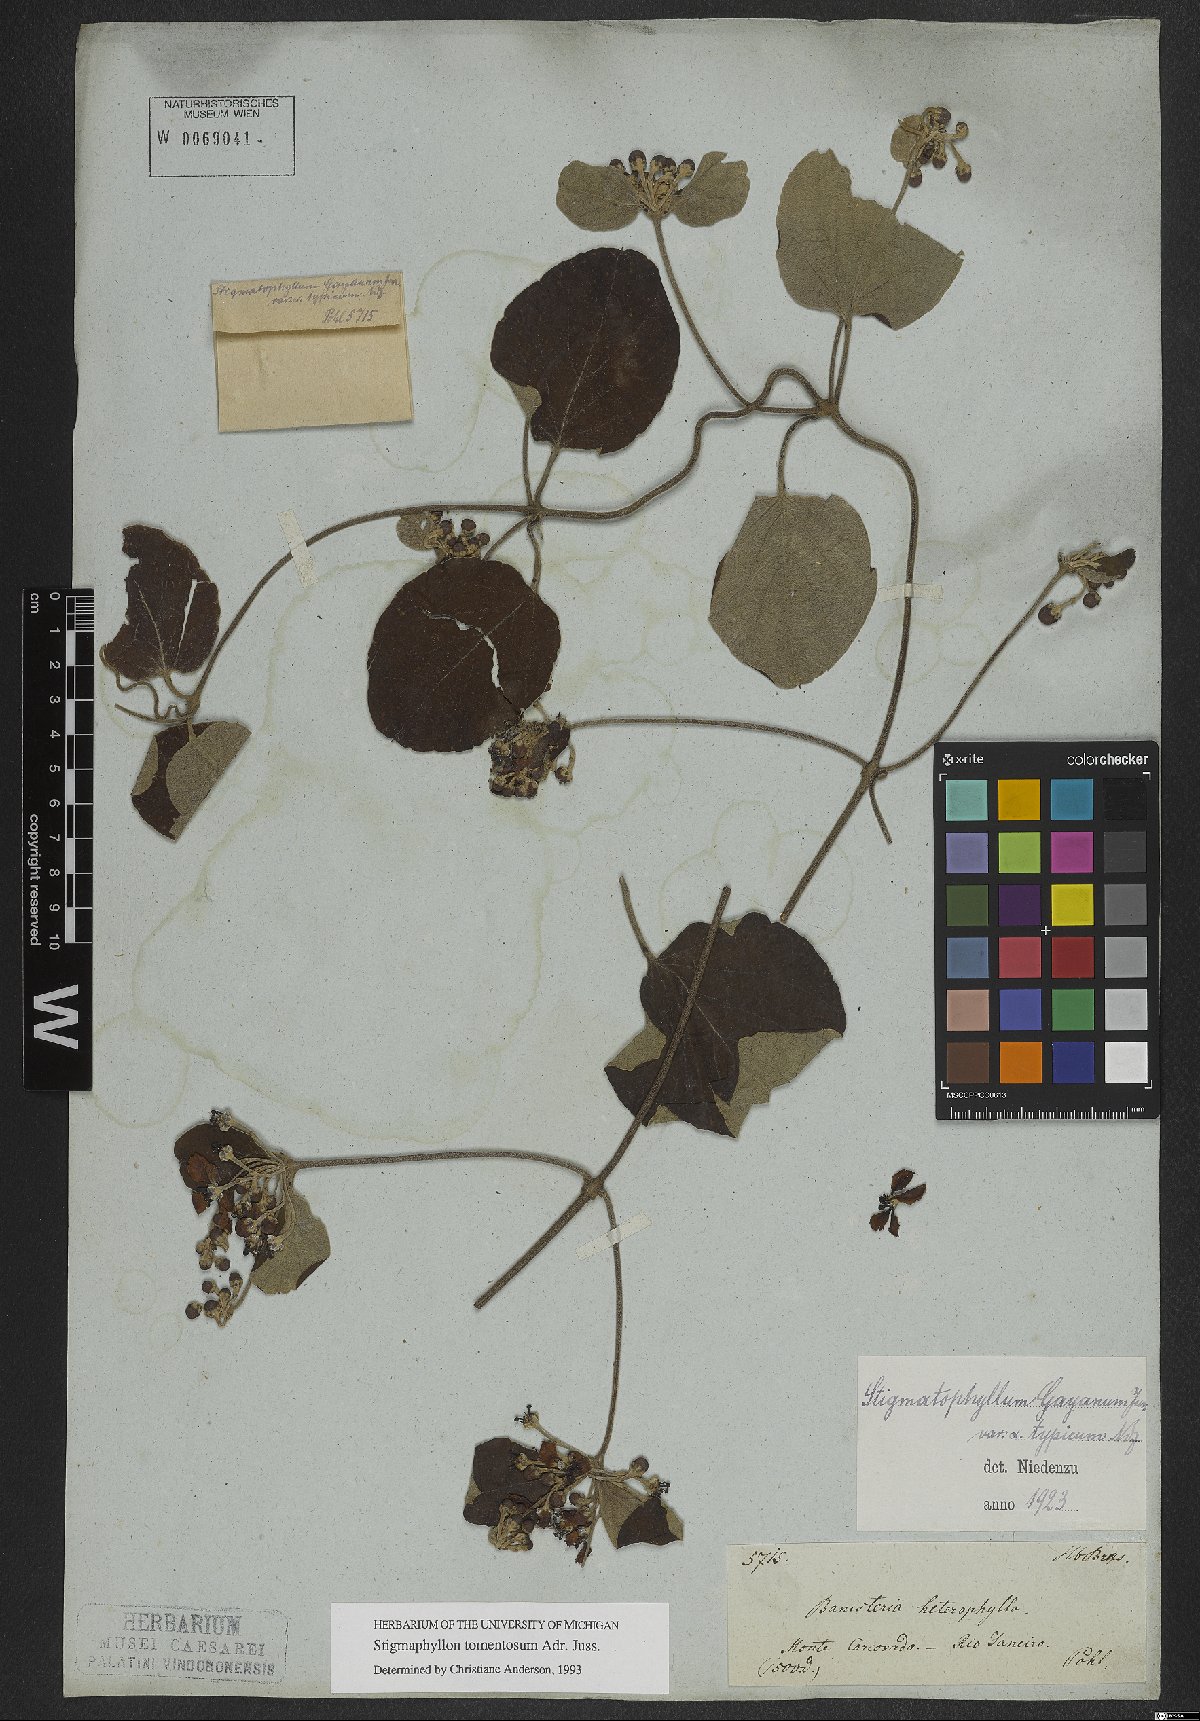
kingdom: Plantae
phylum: Tracheophyta
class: Magnoliopsida
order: Malpighiales
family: Malpighiaceae
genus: Stigmaphyllon
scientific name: Stigmaphyllon tomentosum
